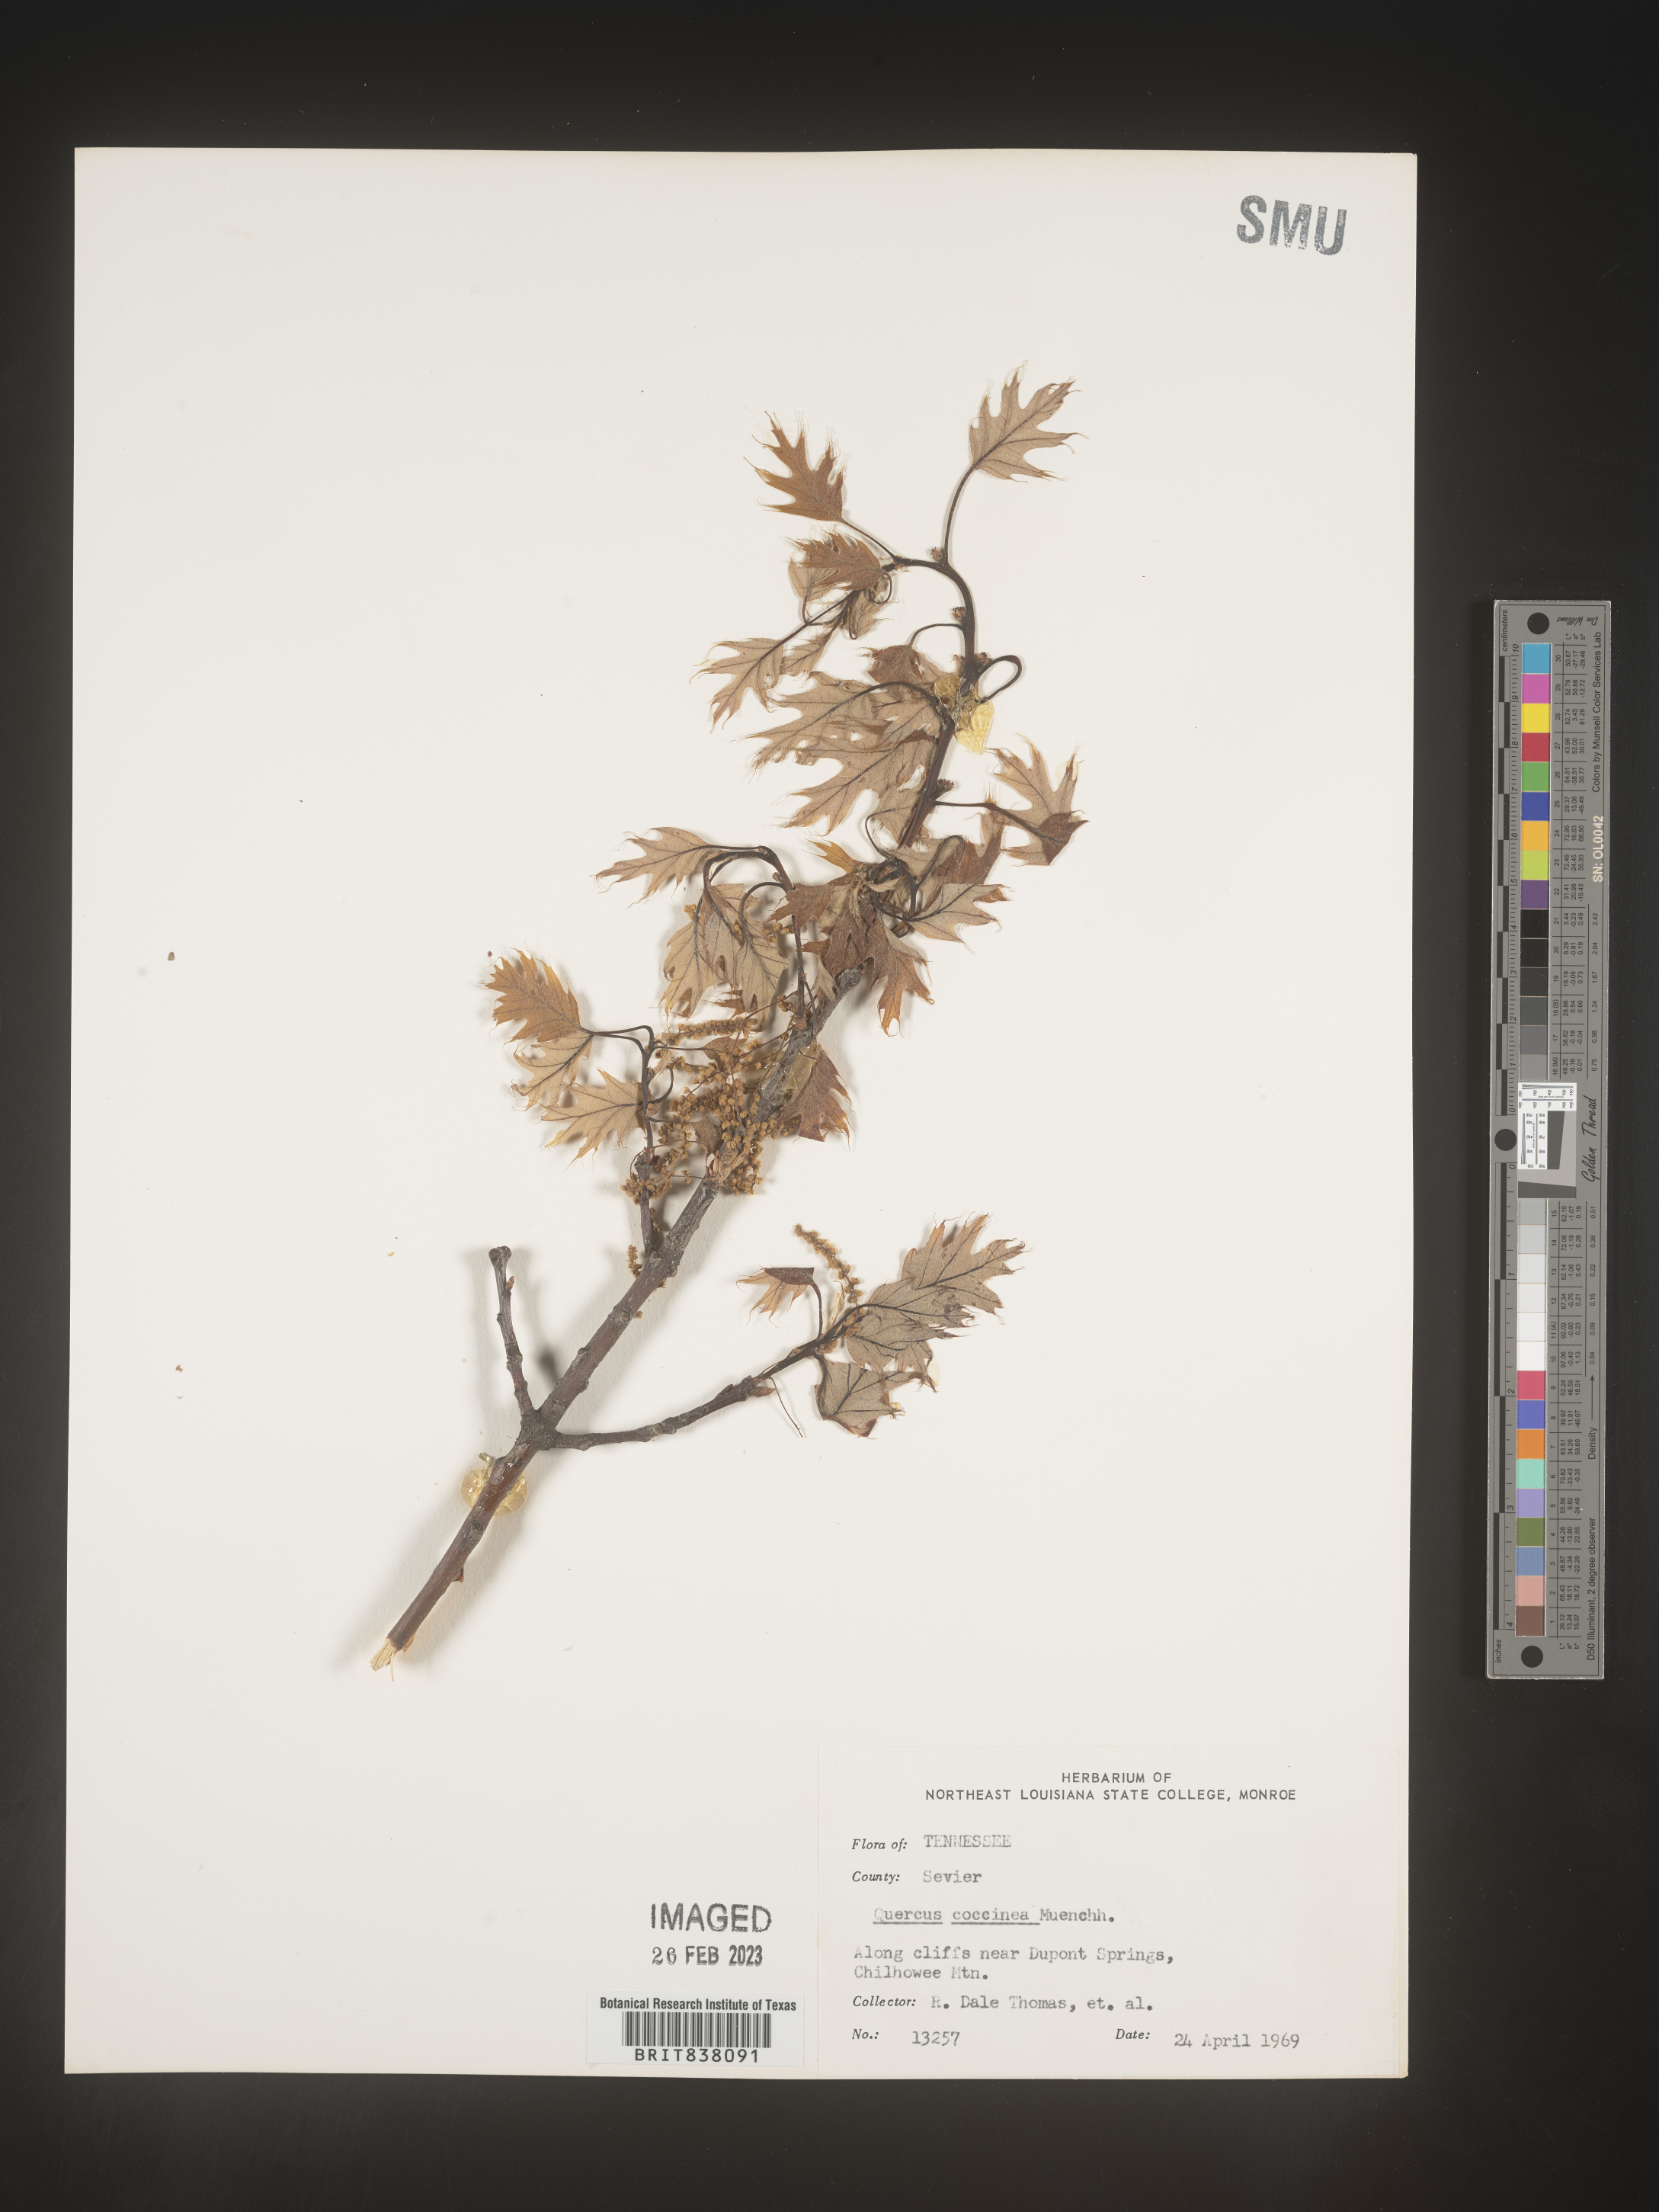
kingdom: Plantae
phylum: Tracheophyta
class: Magnoliopsida
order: Fagales
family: Fagaceae
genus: Quercus
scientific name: Quercus coccinea
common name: Scarlet oak
